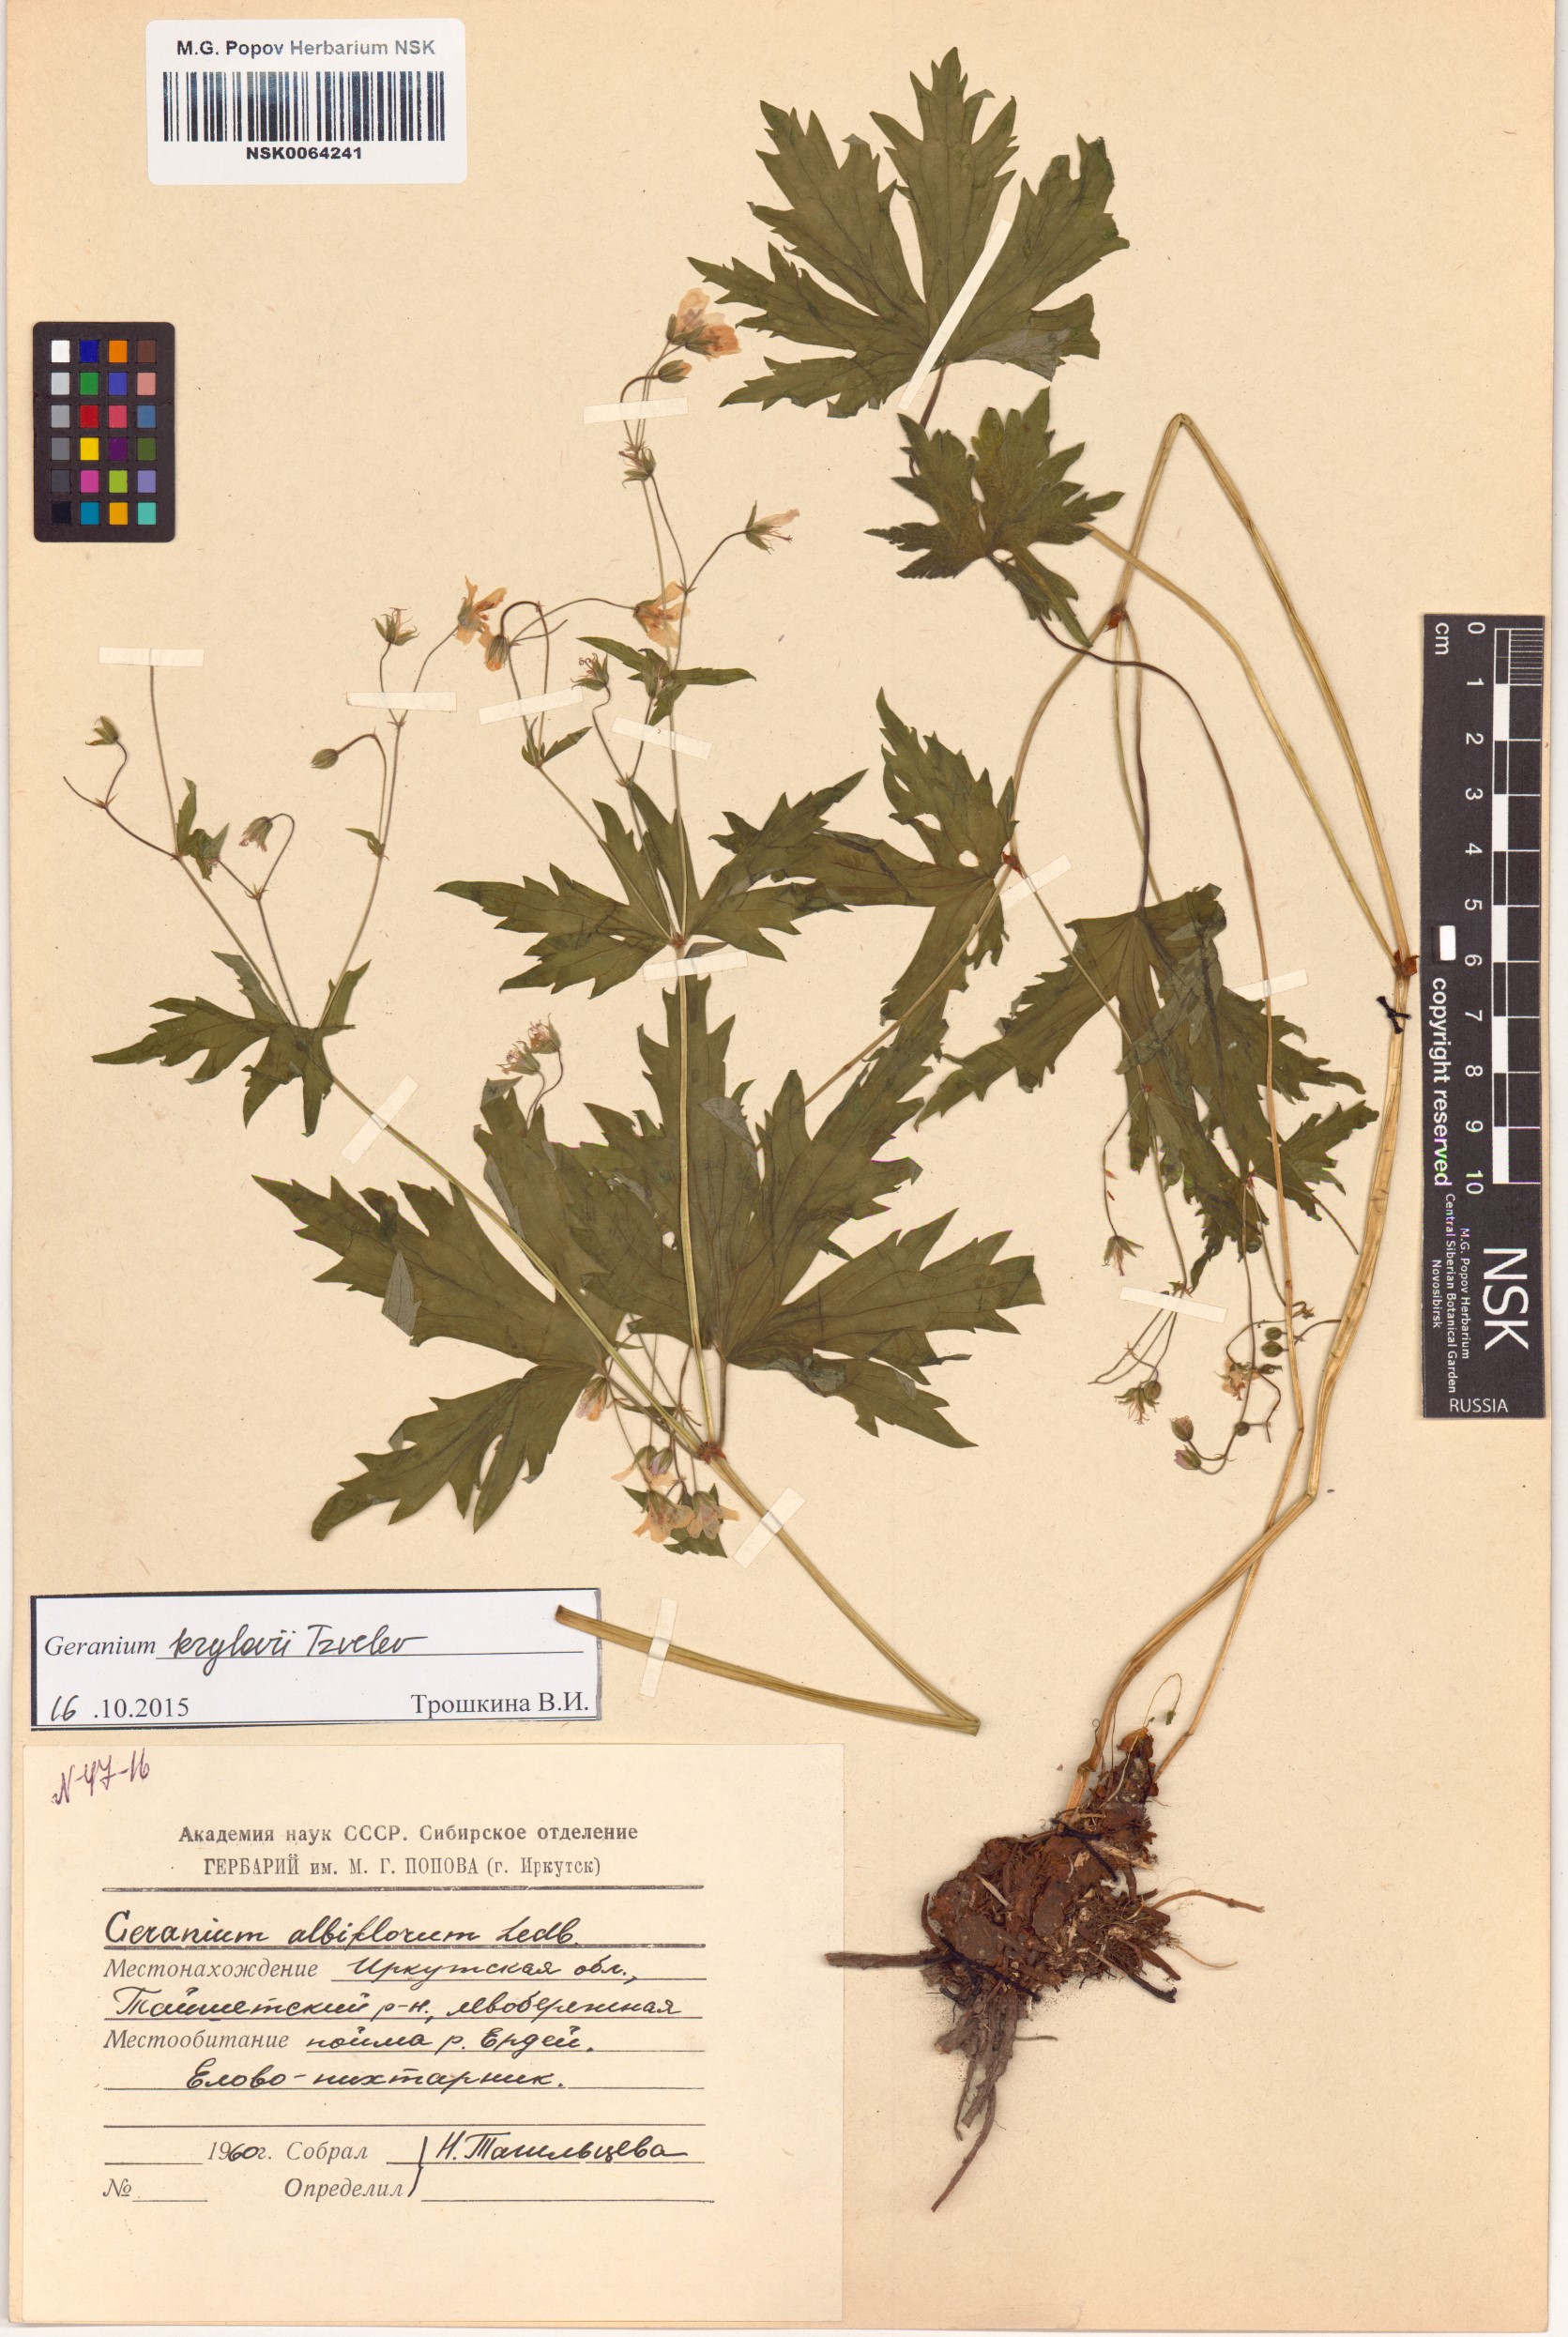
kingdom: Plantae
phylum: Tracheophyta
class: Magnoliopsida
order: Geraniales
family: Geraniaceae
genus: Geranium
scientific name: Geranium sylvaticum
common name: Wood crane's-bill
